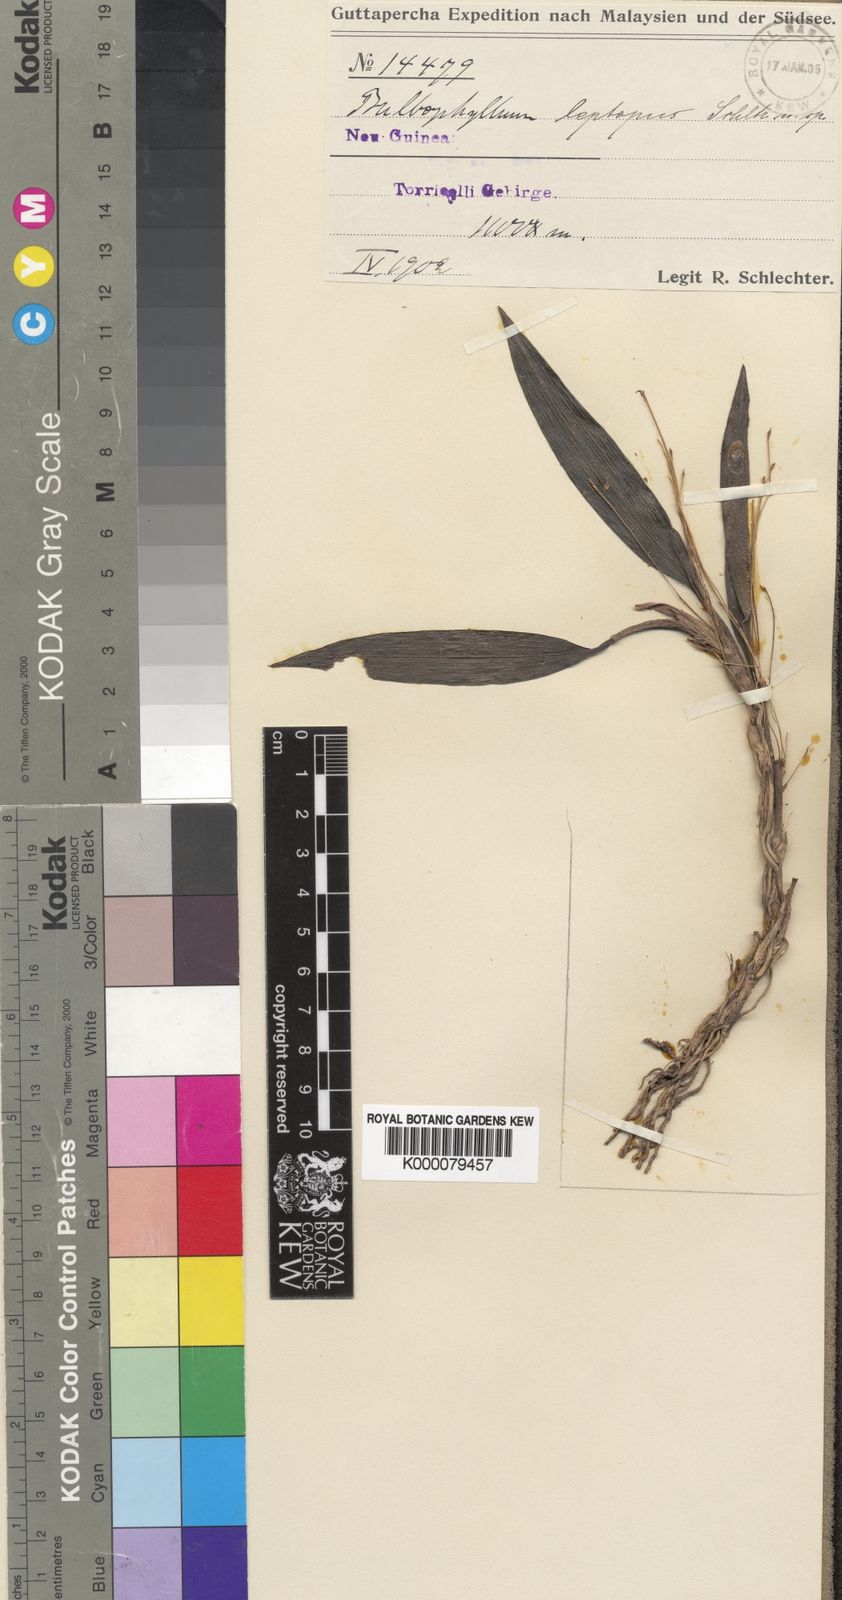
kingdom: Plantae
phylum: Tracheophyta
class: Liliopsida
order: Asparagales
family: Orchidaceae
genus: Bulbophyllum
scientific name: Bulbophyllum leptopus
